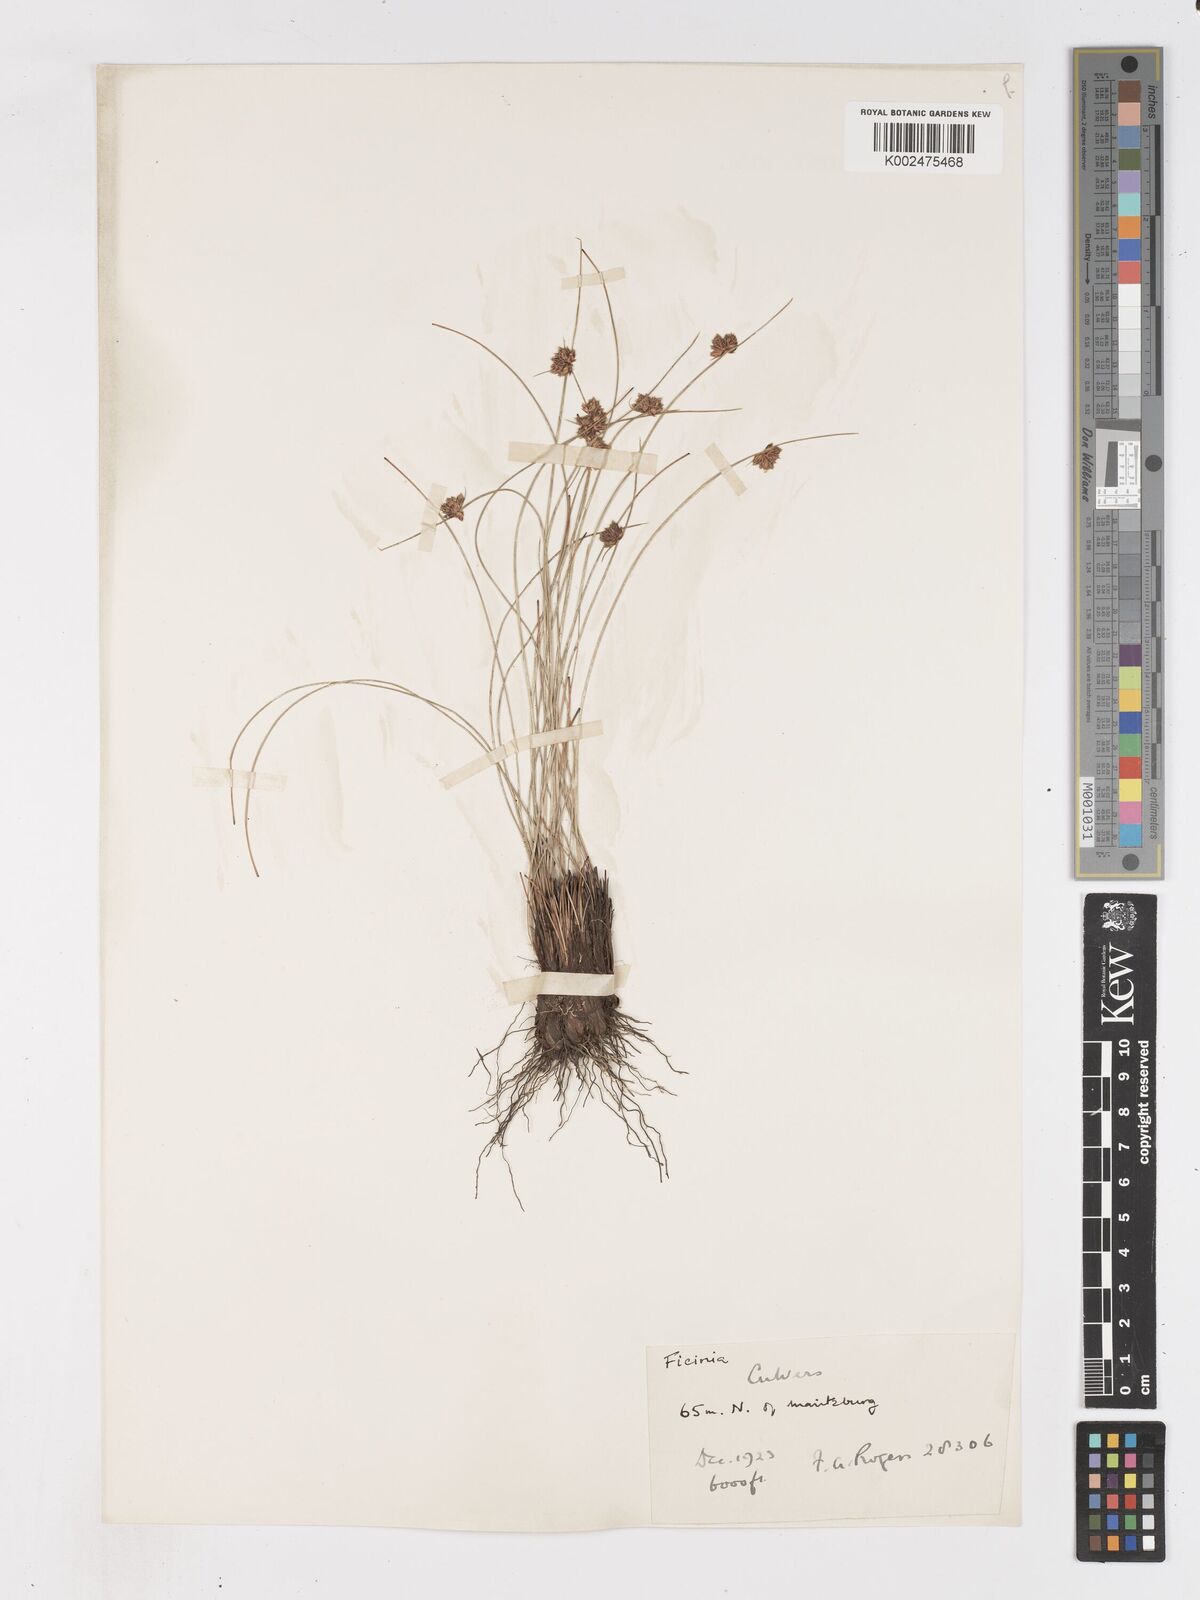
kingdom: Plantae
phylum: Tracheophyta
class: Liliopsida
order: Poales
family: Cyperaceae
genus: Ficinia
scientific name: Ficinia cinnamomea
